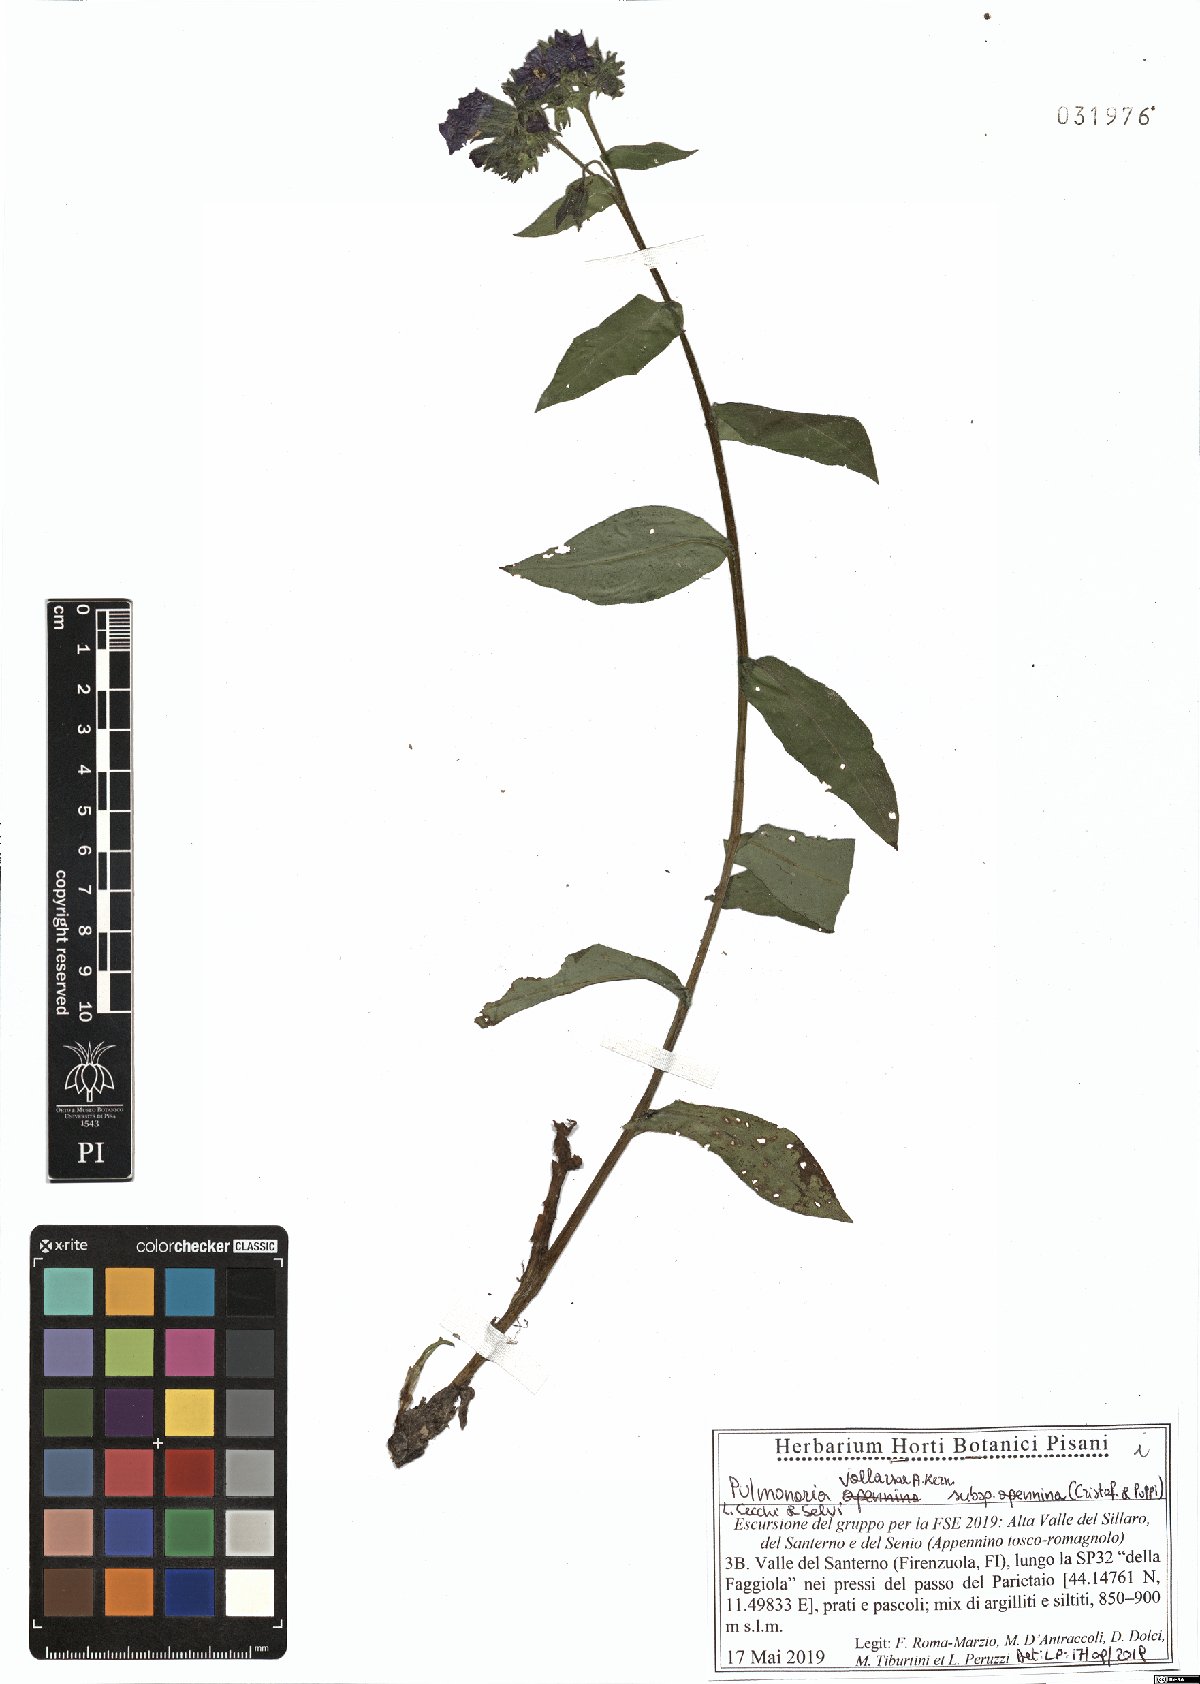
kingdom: Plantae
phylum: Tracheophyta
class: Magnoliopsida
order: Boraginales
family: Boraginaceae
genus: Pulmonaria
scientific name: Pulmonaria hirta
